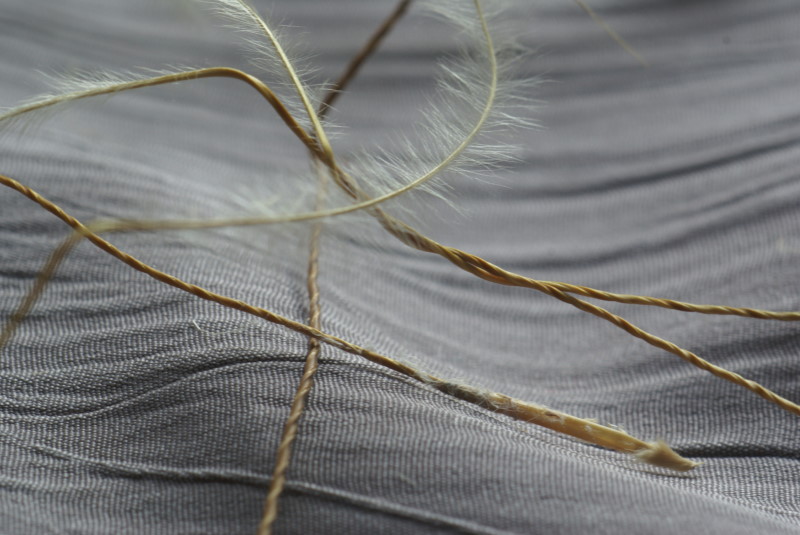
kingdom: Plantae
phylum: Tracheophyta
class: Liliopsida
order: Poales
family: Poaceae
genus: Stipa
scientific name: Stipa
